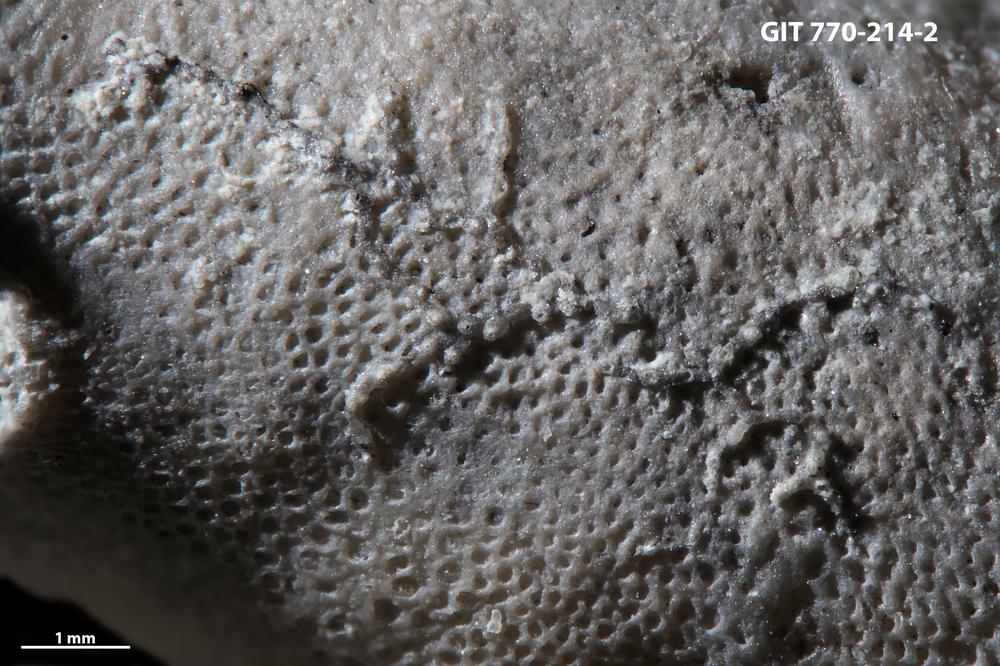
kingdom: Animalia
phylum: Bryozoa
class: Stenolaemata
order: Cyclostomatida
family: Corynotrypidae
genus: Corynotrypa
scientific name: Corynotrypa
